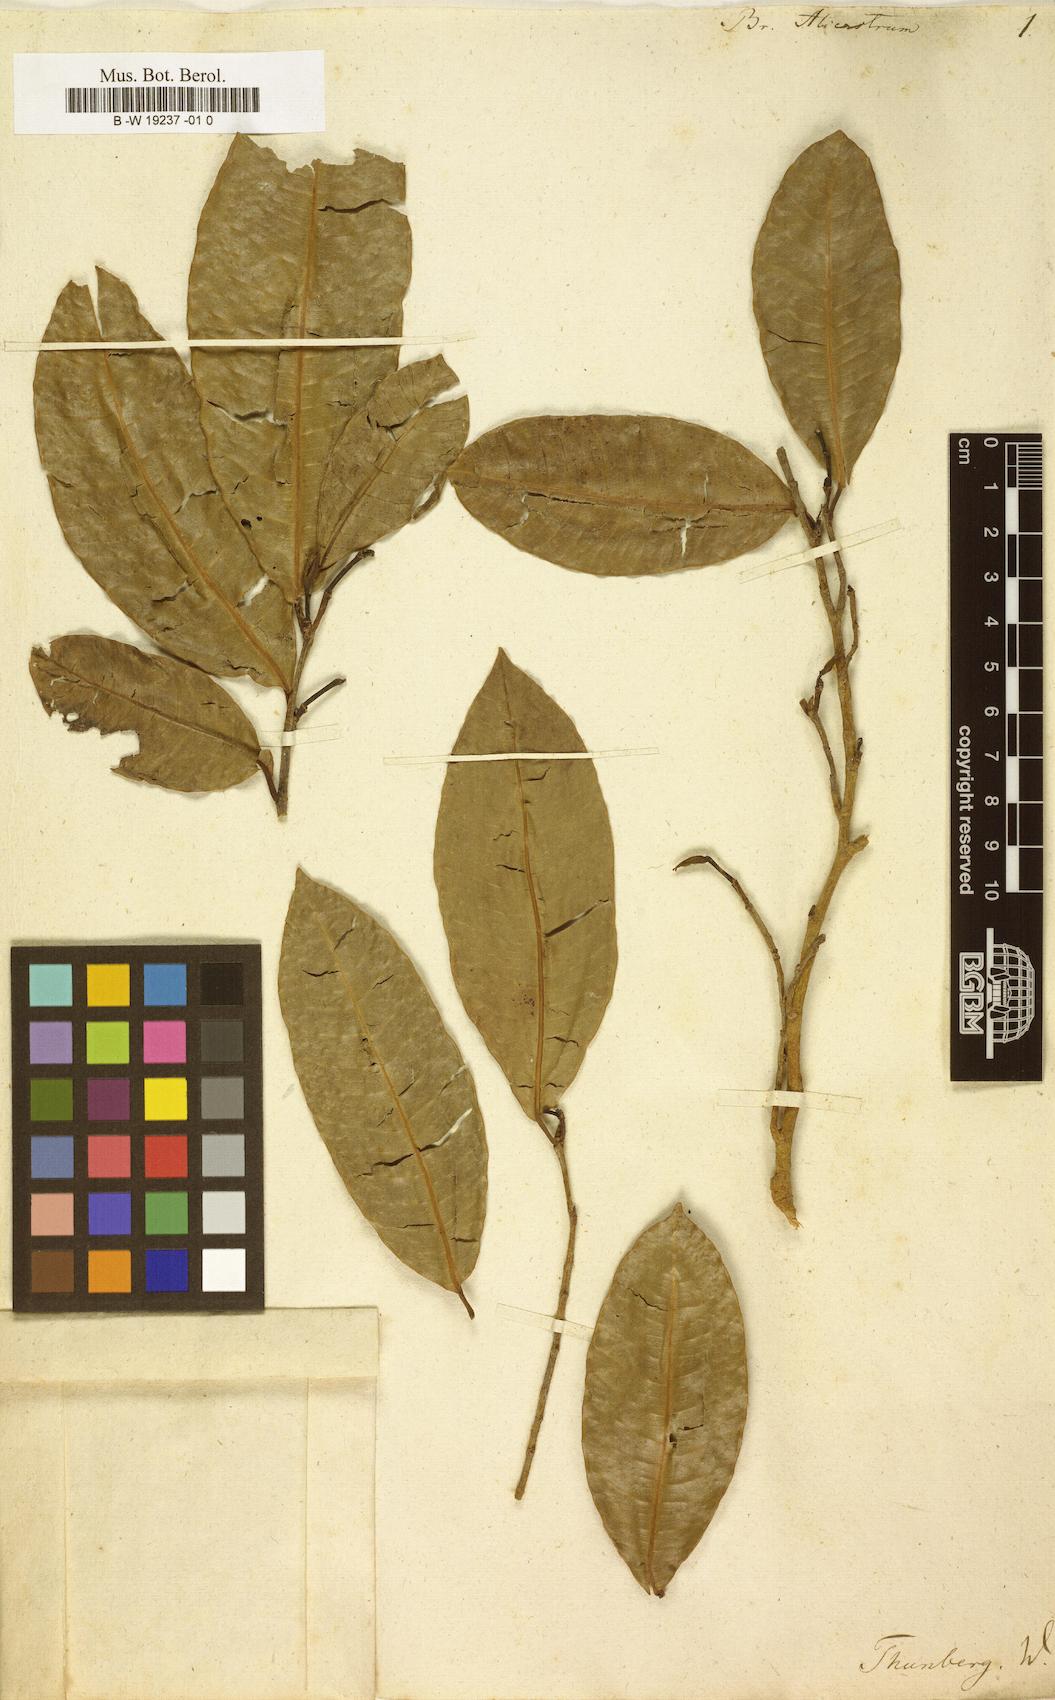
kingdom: Plantae
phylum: Tracheophyta
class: Magnoliopsida
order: Rosales
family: Moraceae
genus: Brosimum
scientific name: Brosimum alicastrum
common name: Breadnut
